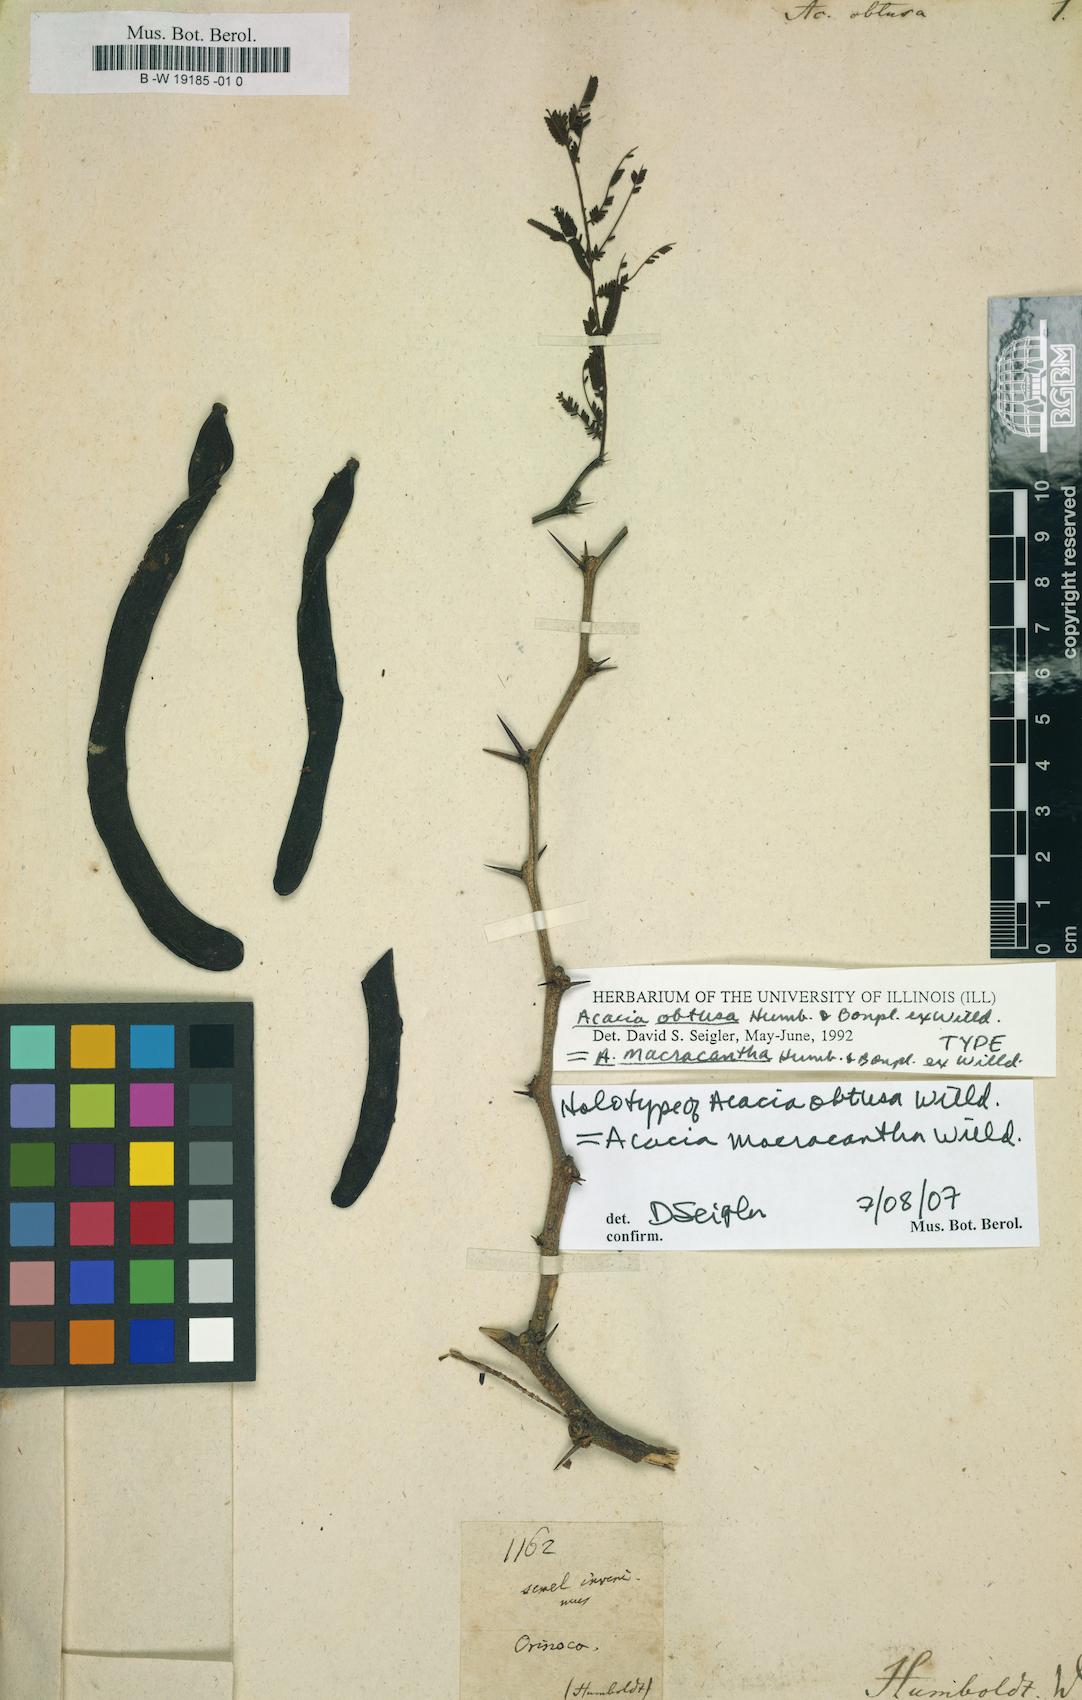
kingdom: Plantae
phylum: Tracheophyta
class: Magnoliopsida
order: Fabales
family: Fabaceae
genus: Vachellia
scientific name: Vachellia macracantha
